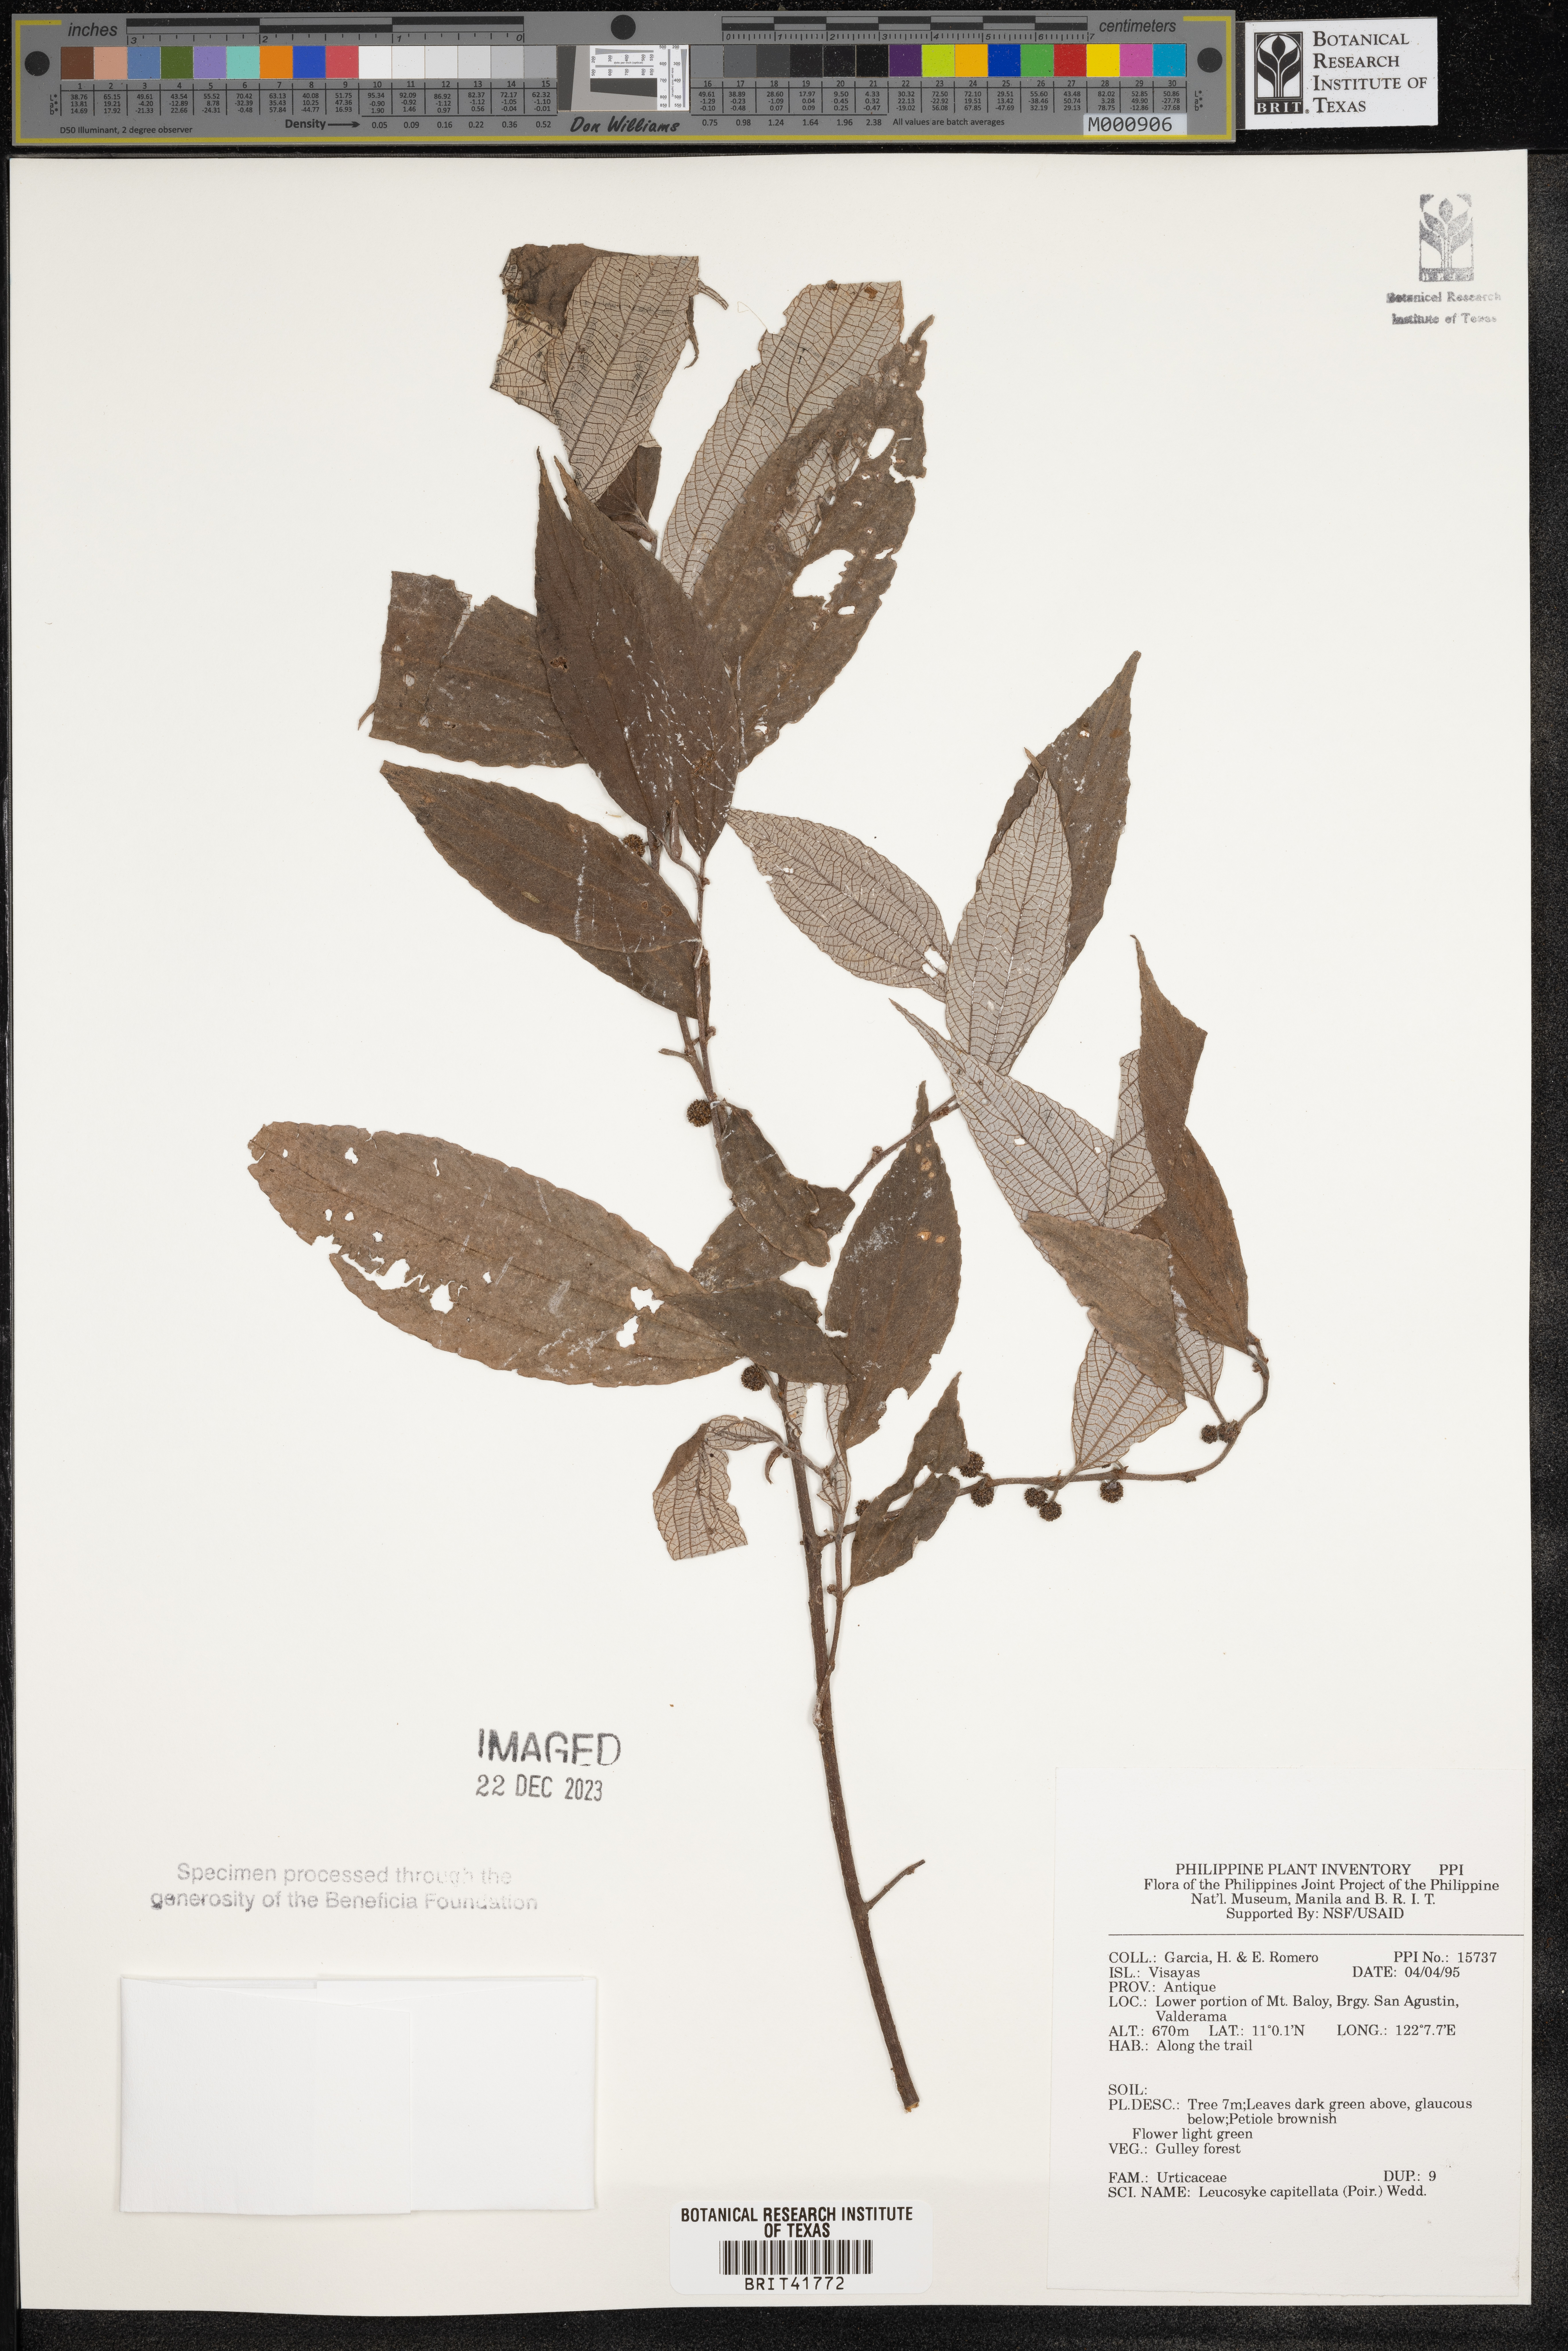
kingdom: Plantae
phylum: Tracheophyta
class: Magnoliopsida
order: Rosales
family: Urticaceae
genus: Leucosyke
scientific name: Leucosyke capitellata
